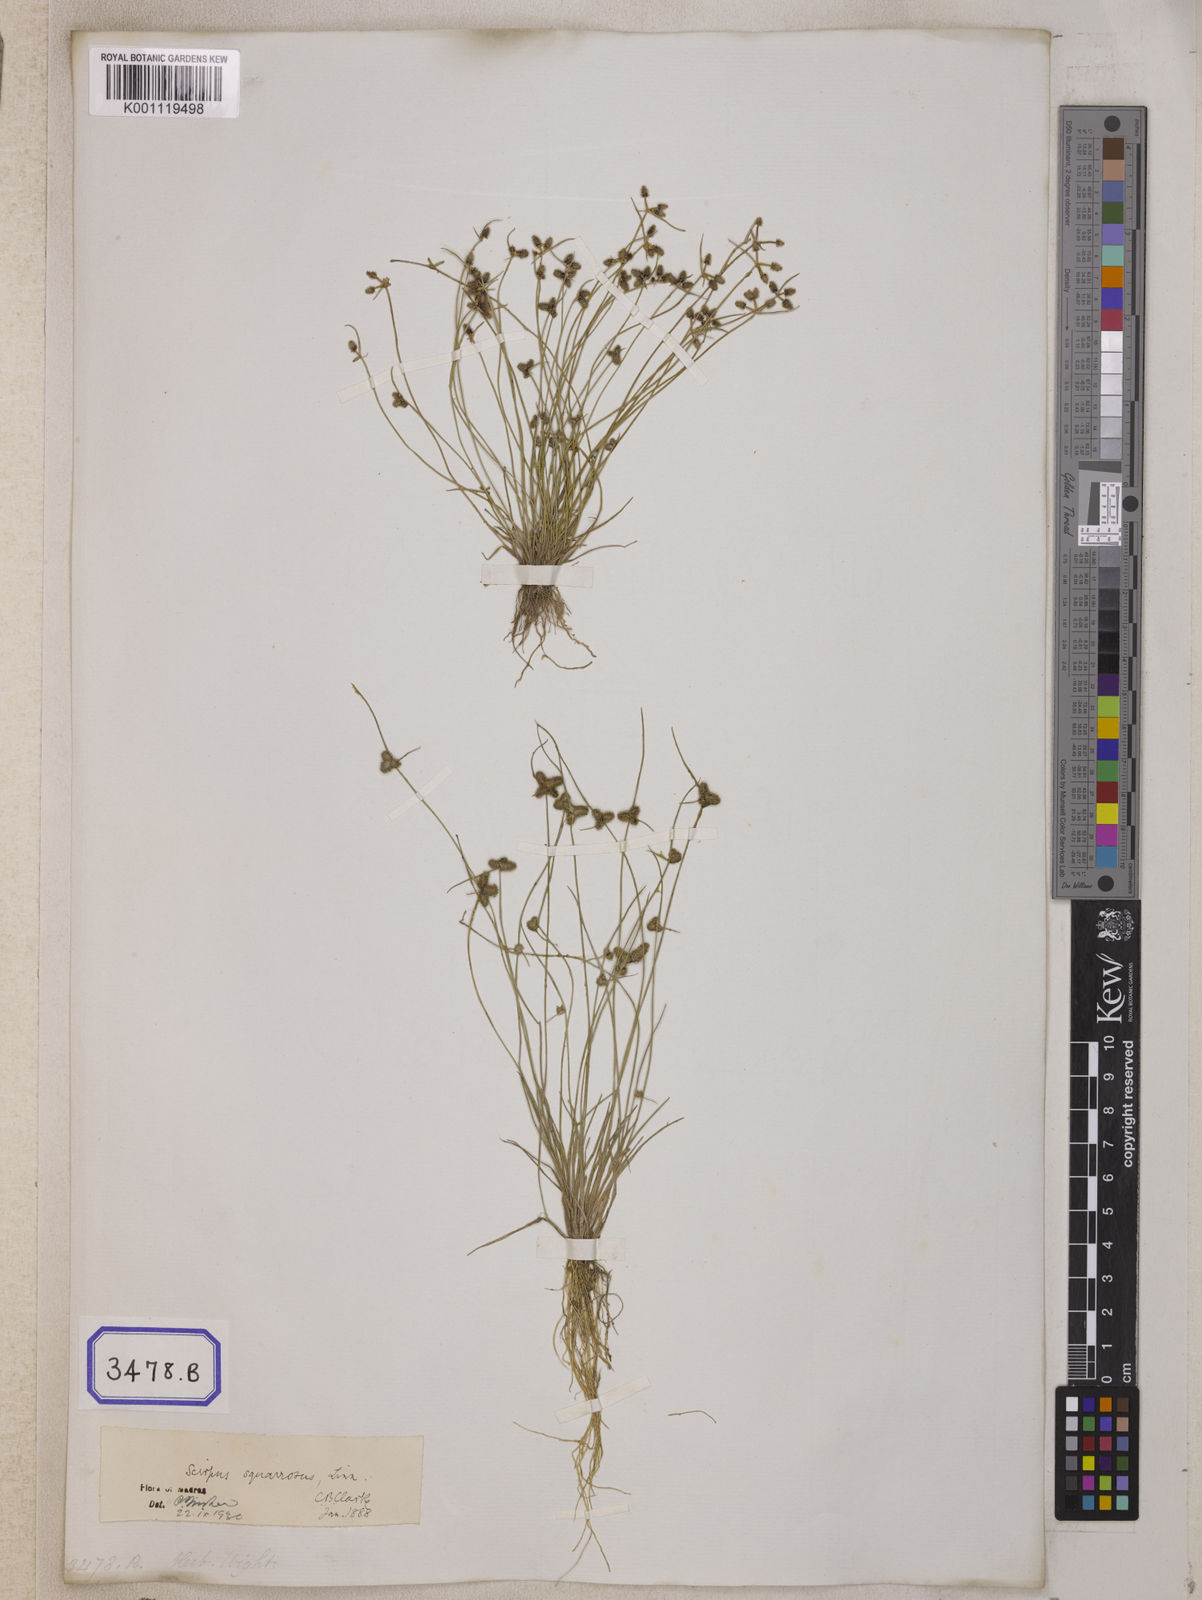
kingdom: Plantae
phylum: Tracheophyta
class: Liliopsida
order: Poales
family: Cyperaceae
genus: Isolepis
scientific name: Isolepis
